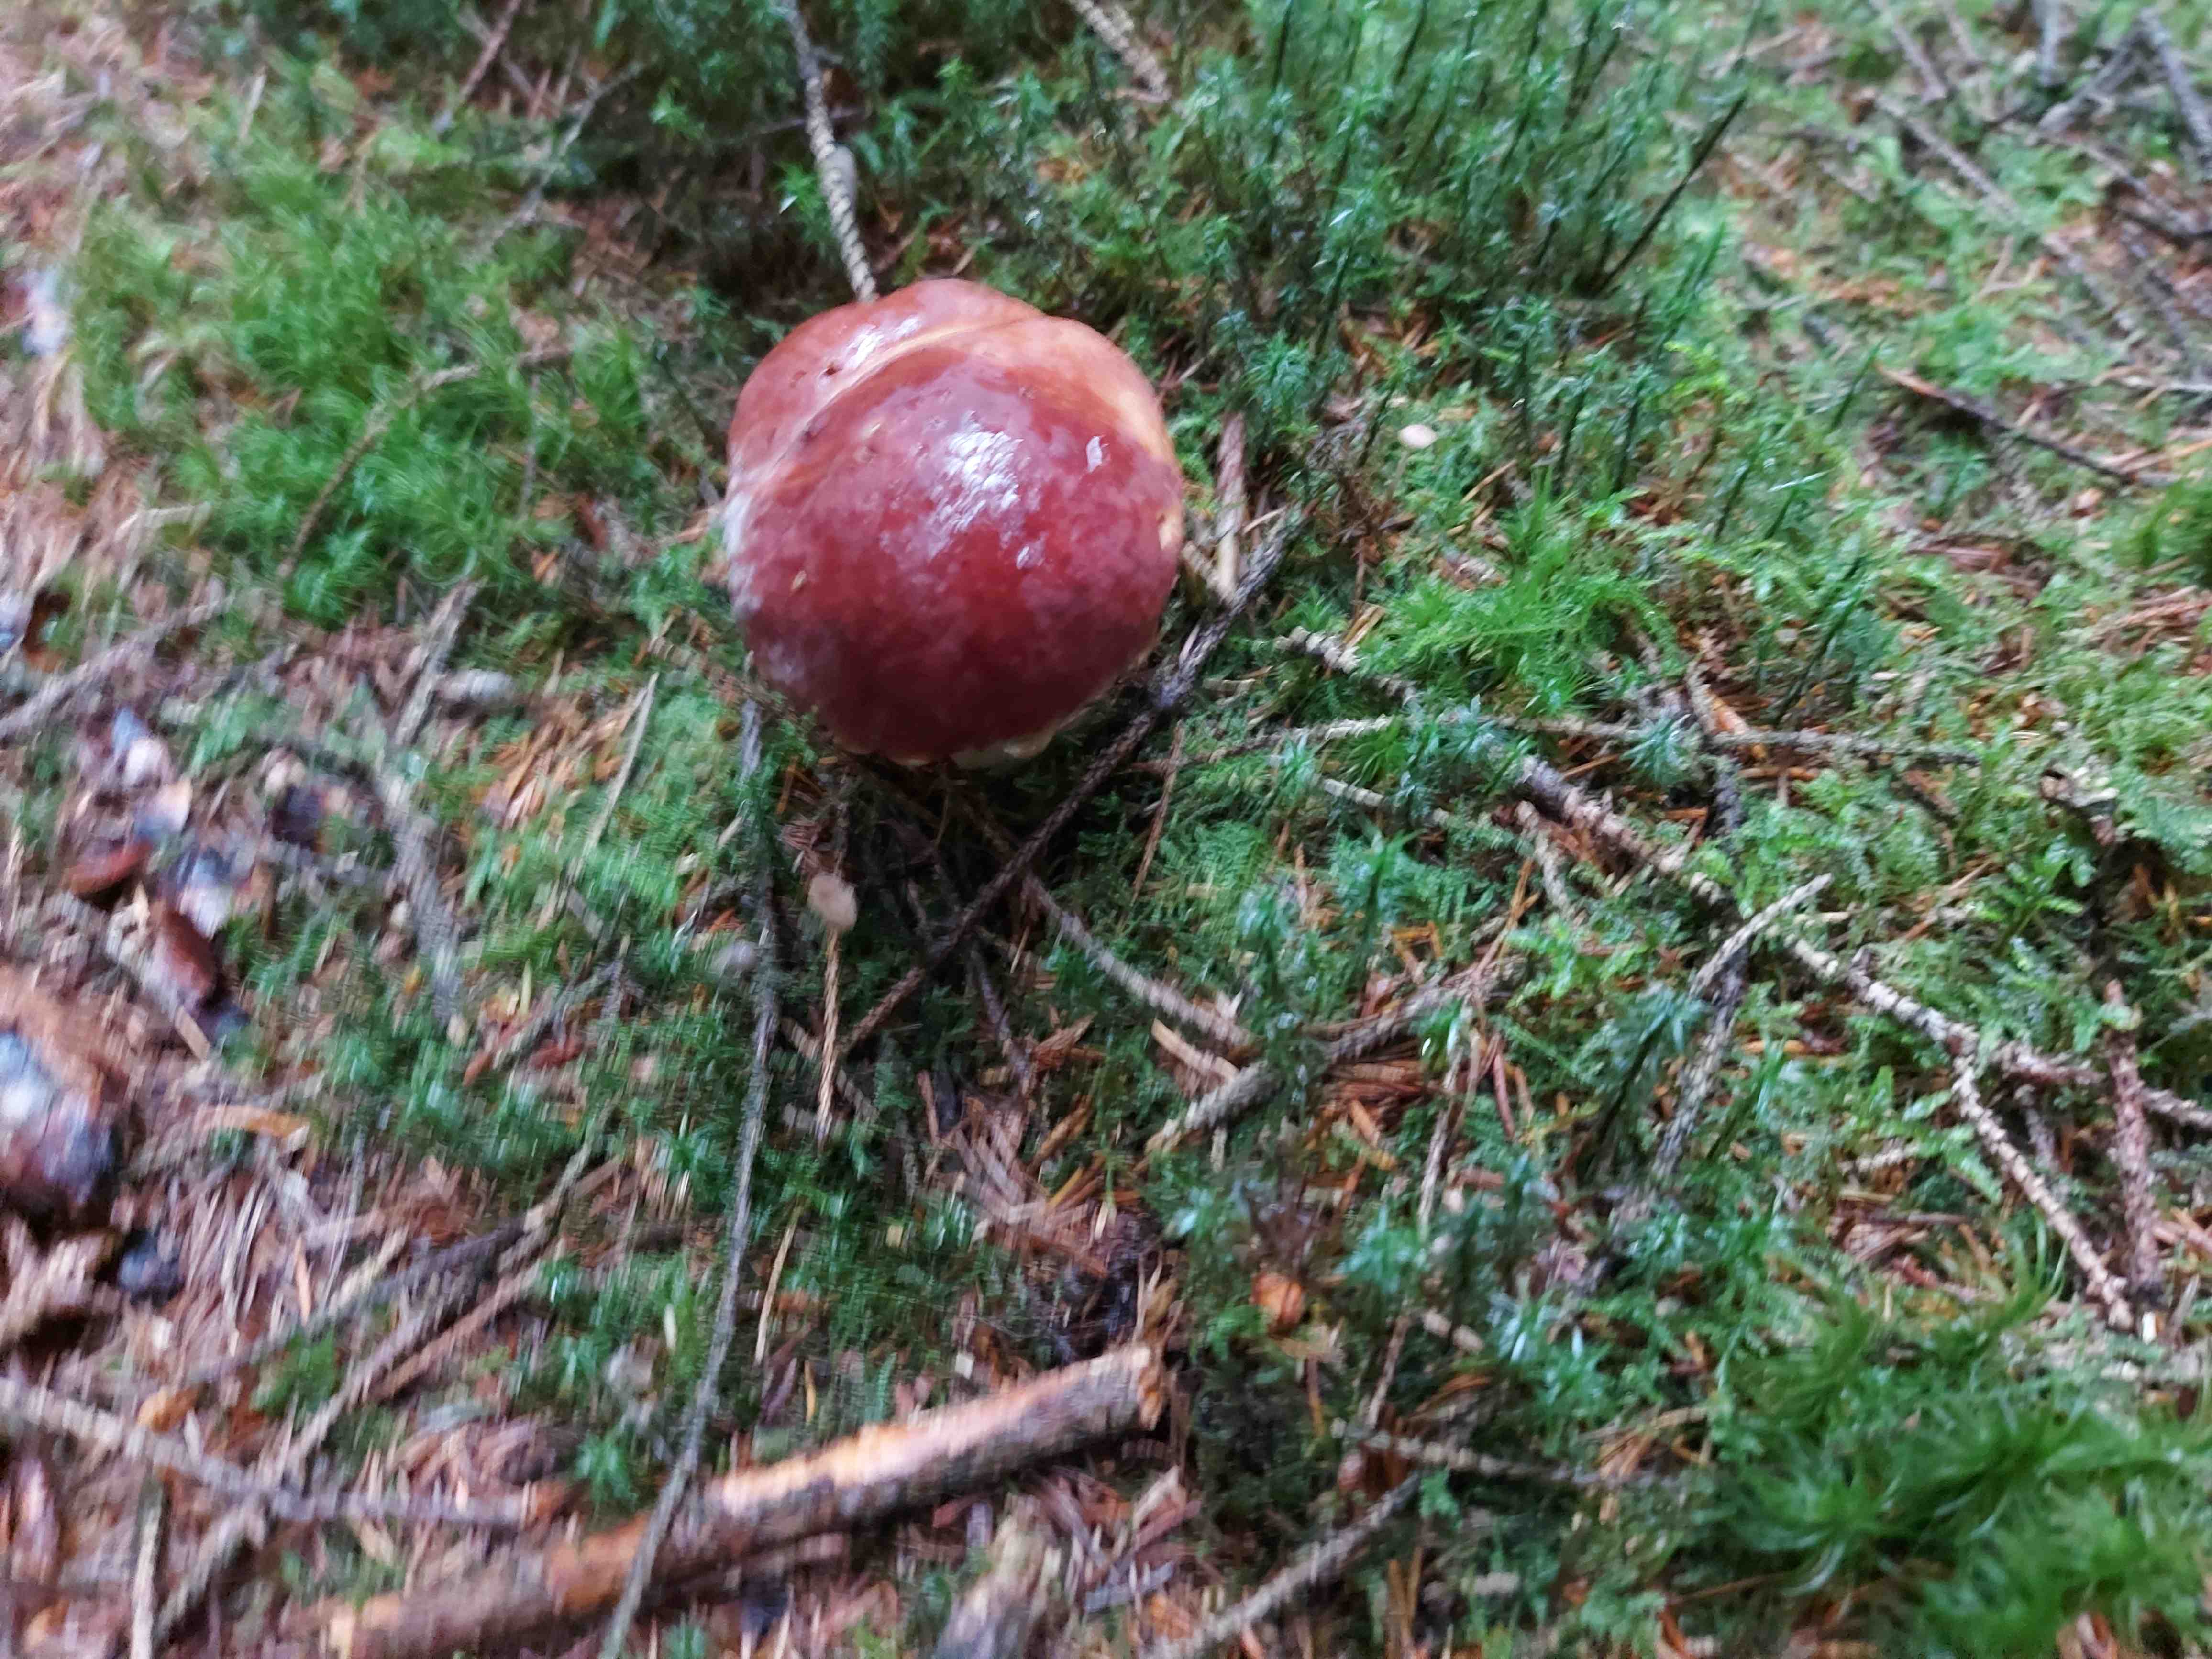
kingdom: Fungi
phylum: Basidiomycota
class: Agaricomycetes
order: Boletales
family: Boletaceae
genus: Boletus
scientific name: Boletus pinophilus
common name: rødbrun rørhat
